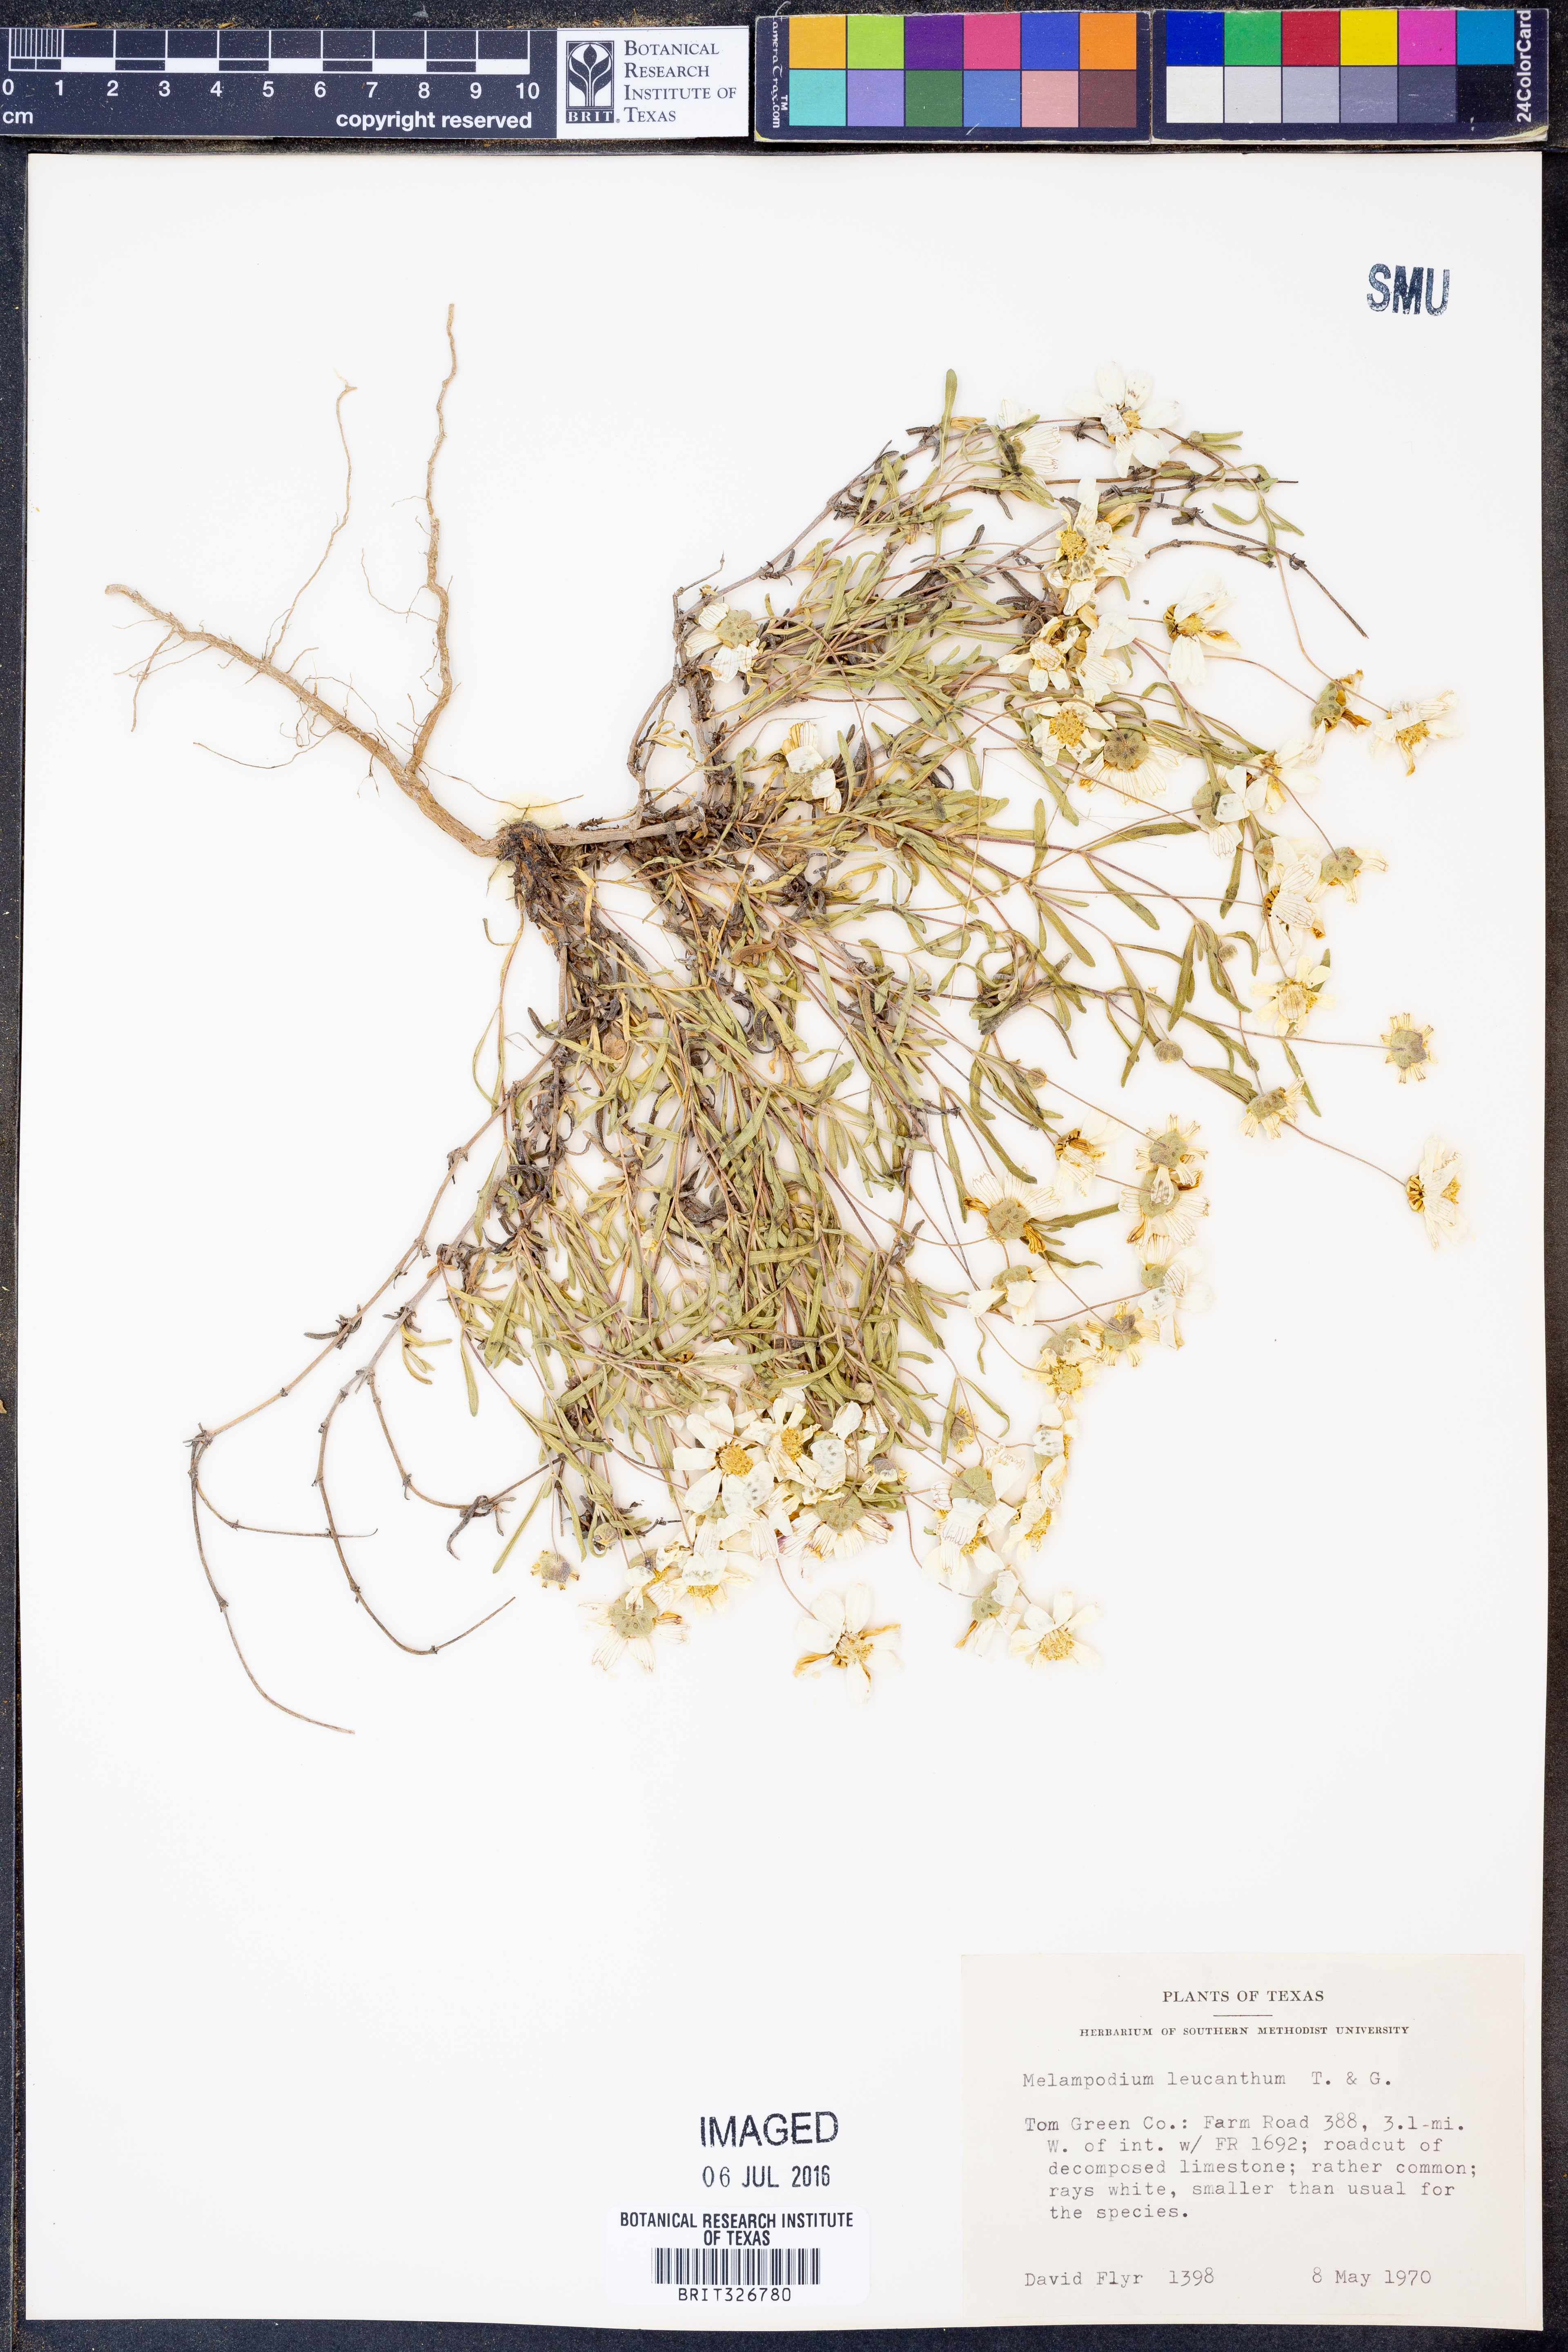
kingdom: Plantae
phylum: Tracheophyta
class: Magnoliopsida
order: Asterales
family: Asteraceae
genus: Melampodium
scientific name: Melampodium leucanthum
